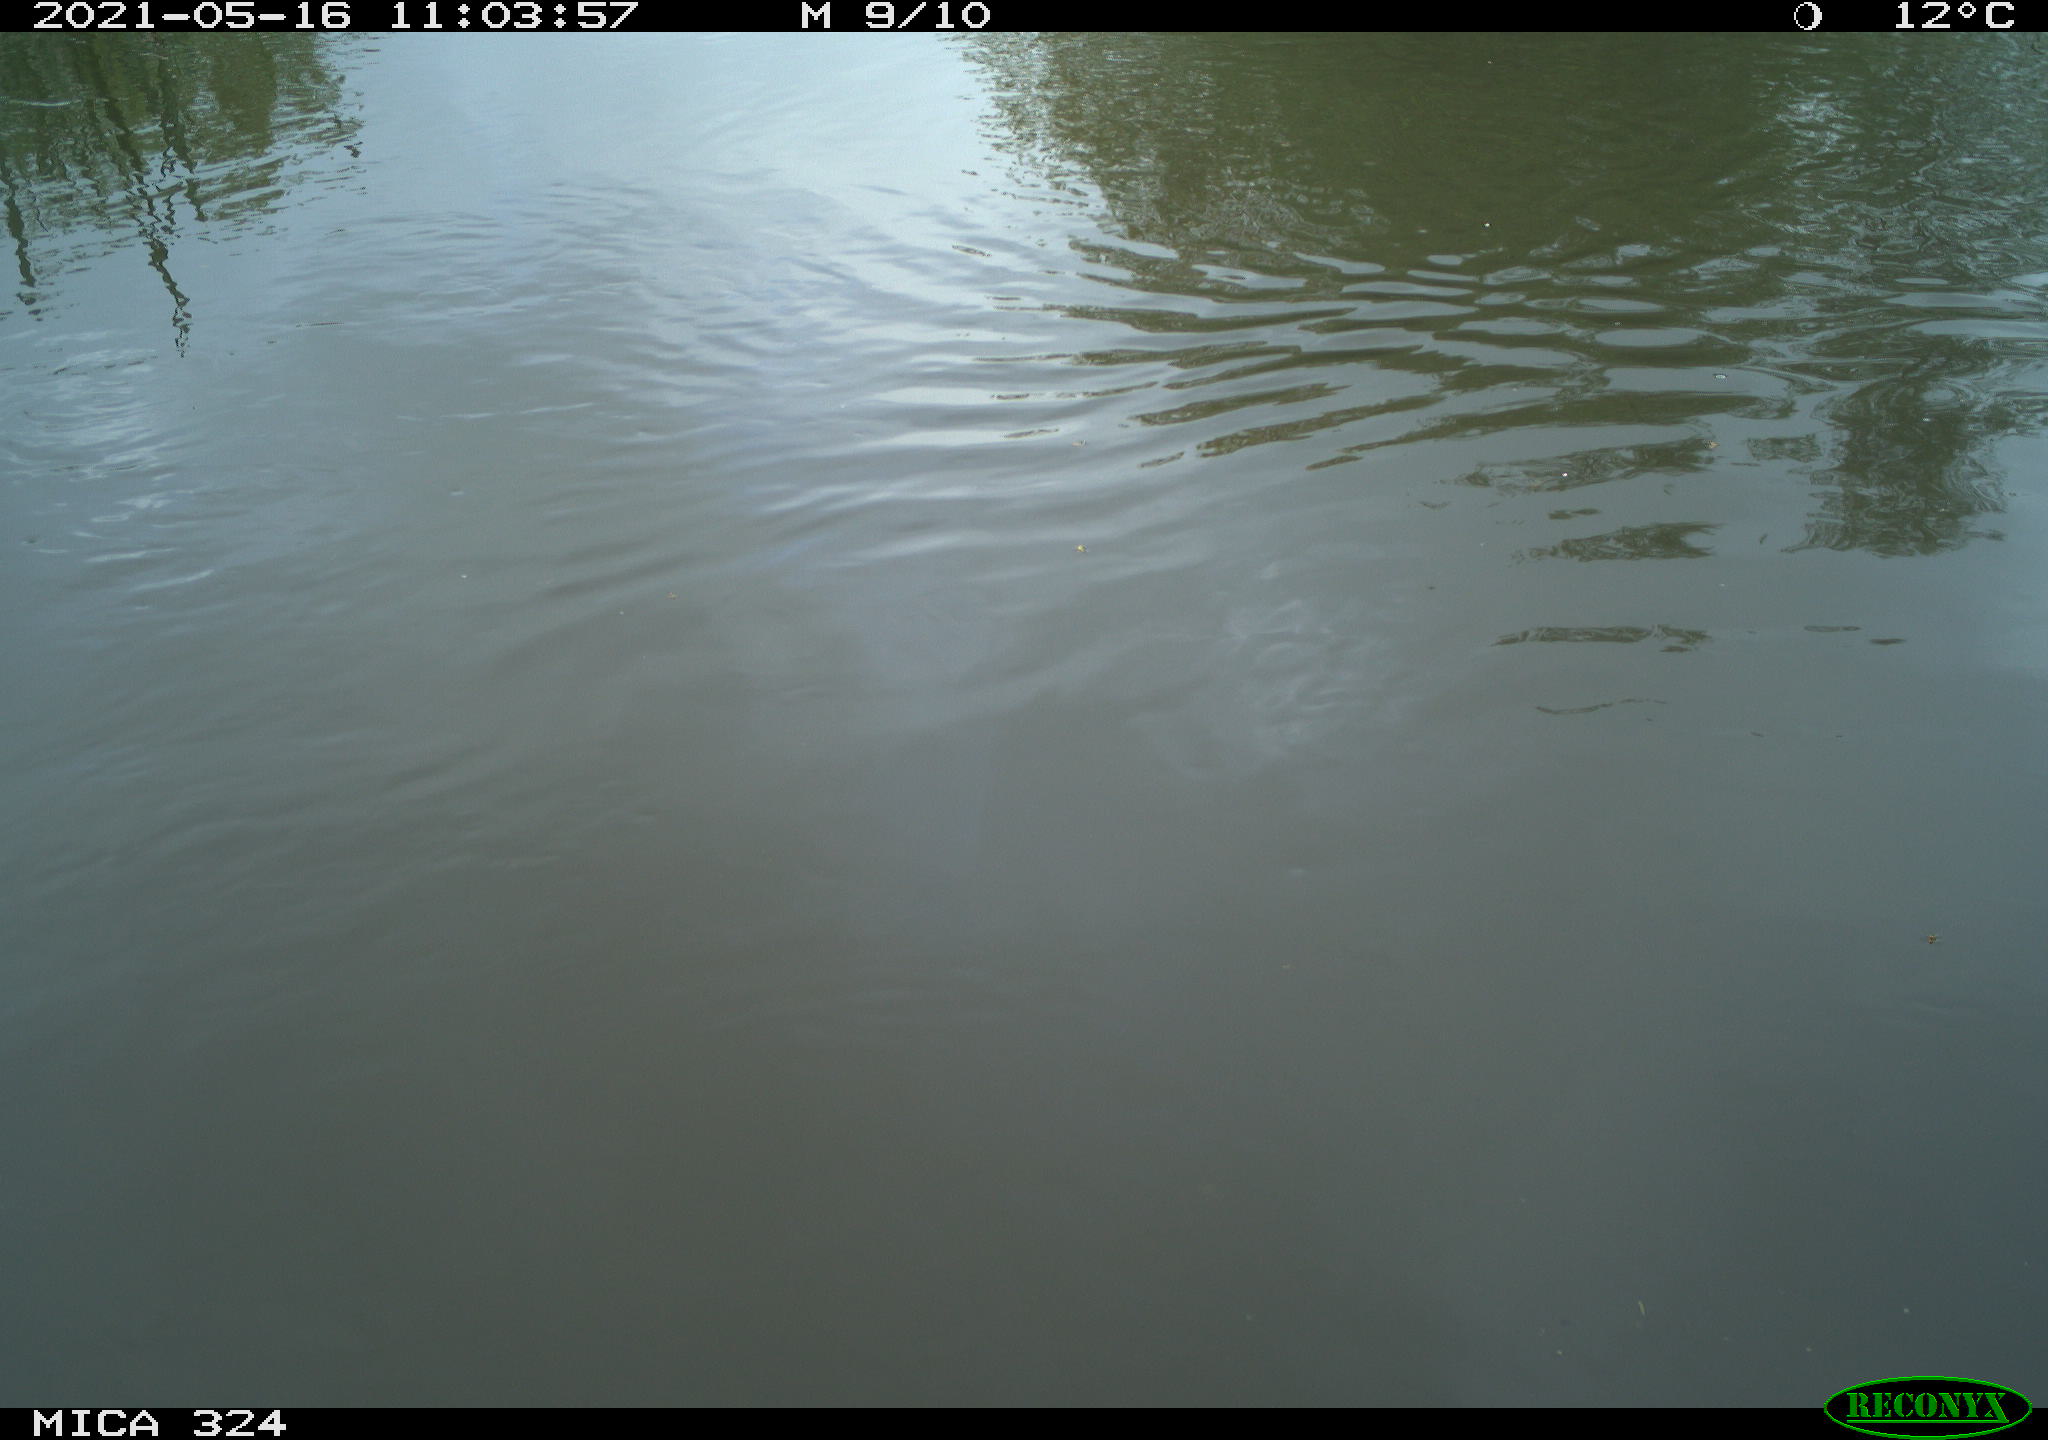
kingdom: Animalia
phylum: Chordata
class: Aves
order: Gruiformes
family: Rallidae
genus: Gallinula
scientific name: Gallinula chloropus
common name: Common moorhen
